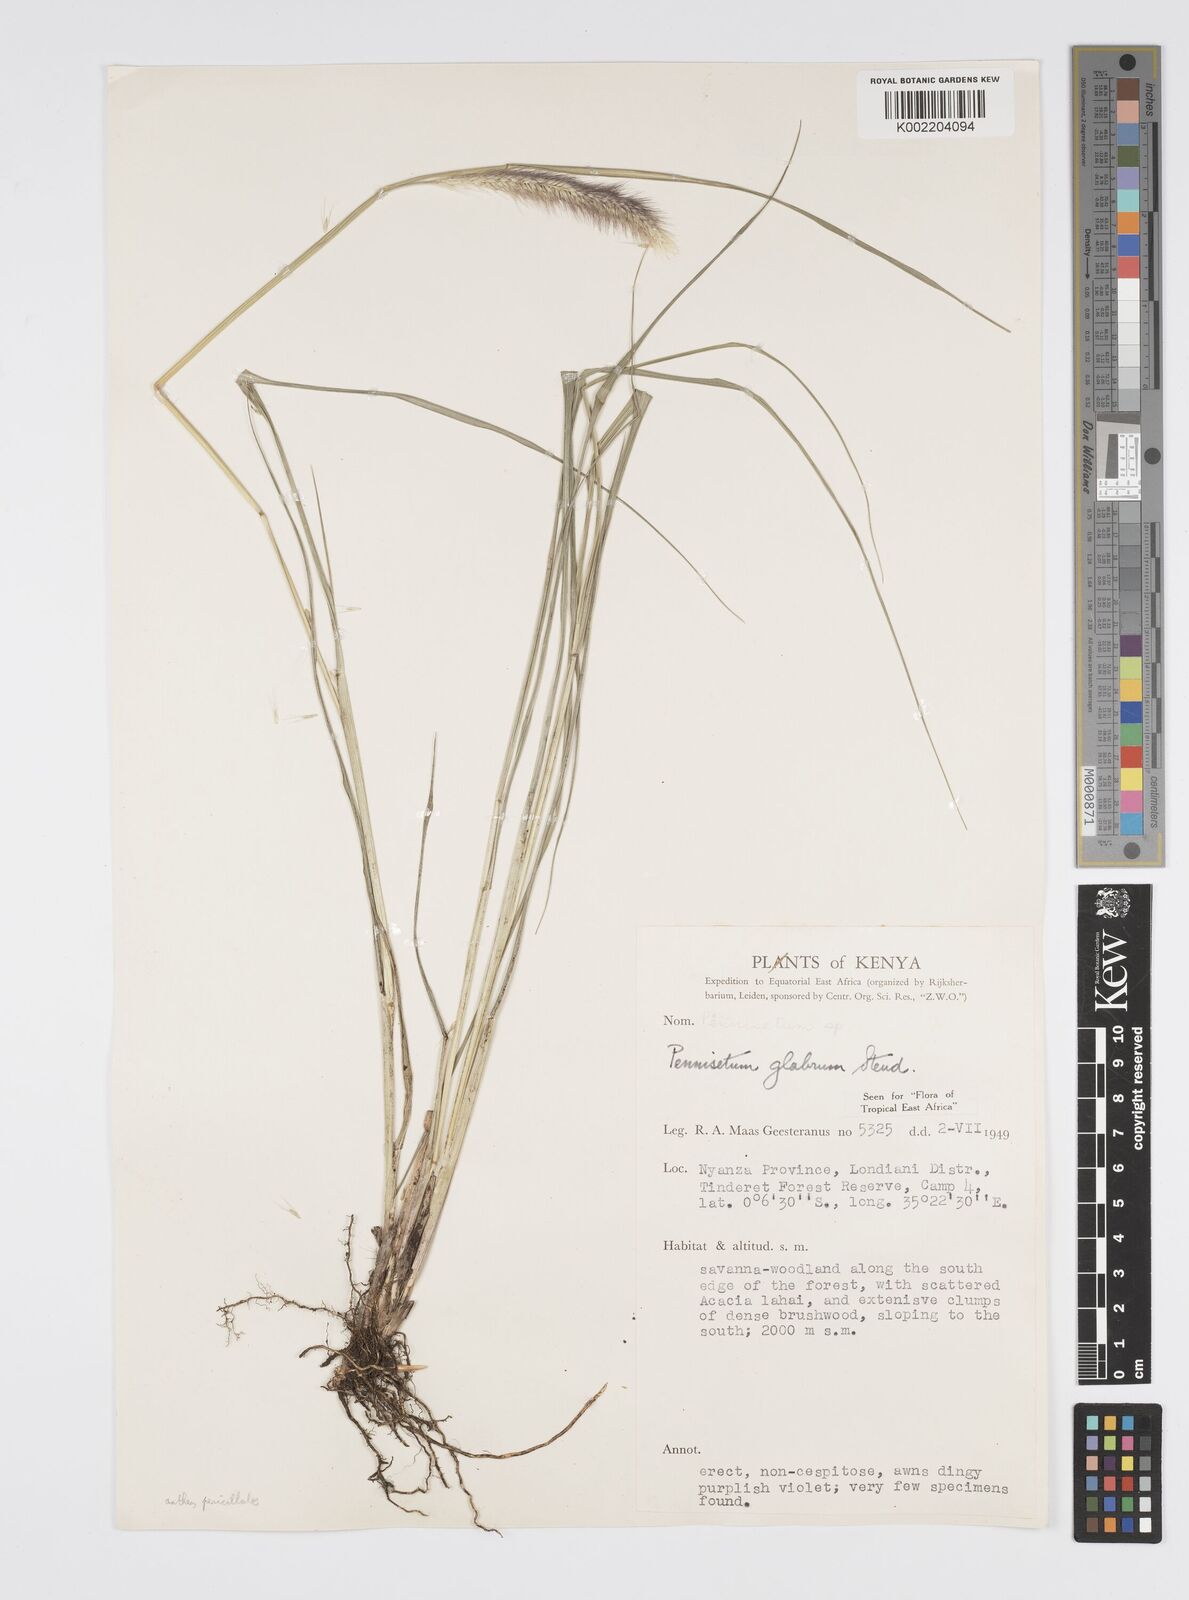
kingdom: Plantae
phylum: Tracheophyta
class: Liliopsida
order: Poales
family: Poaceae
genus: Cenchrus
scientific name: Cenchrus geniculatus
